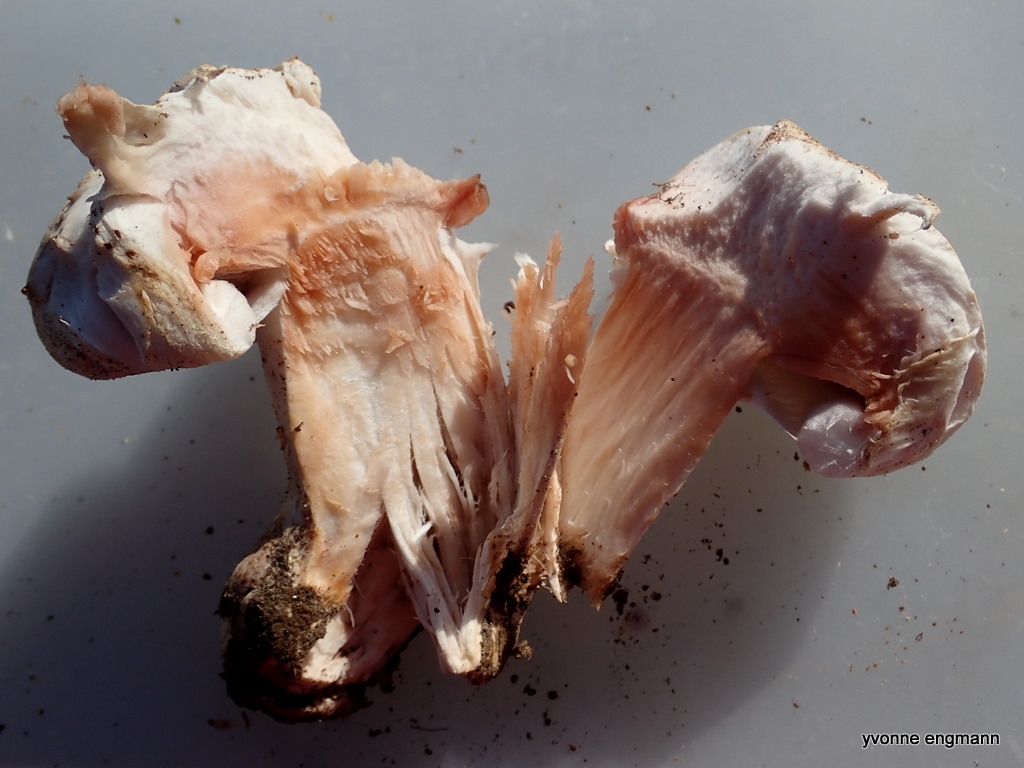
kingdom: Fungi
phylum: Basidiomycota
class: Agaricomycetes
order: Agaricales
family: Agaricaceae
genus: Agaricus
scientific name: Agaricus
